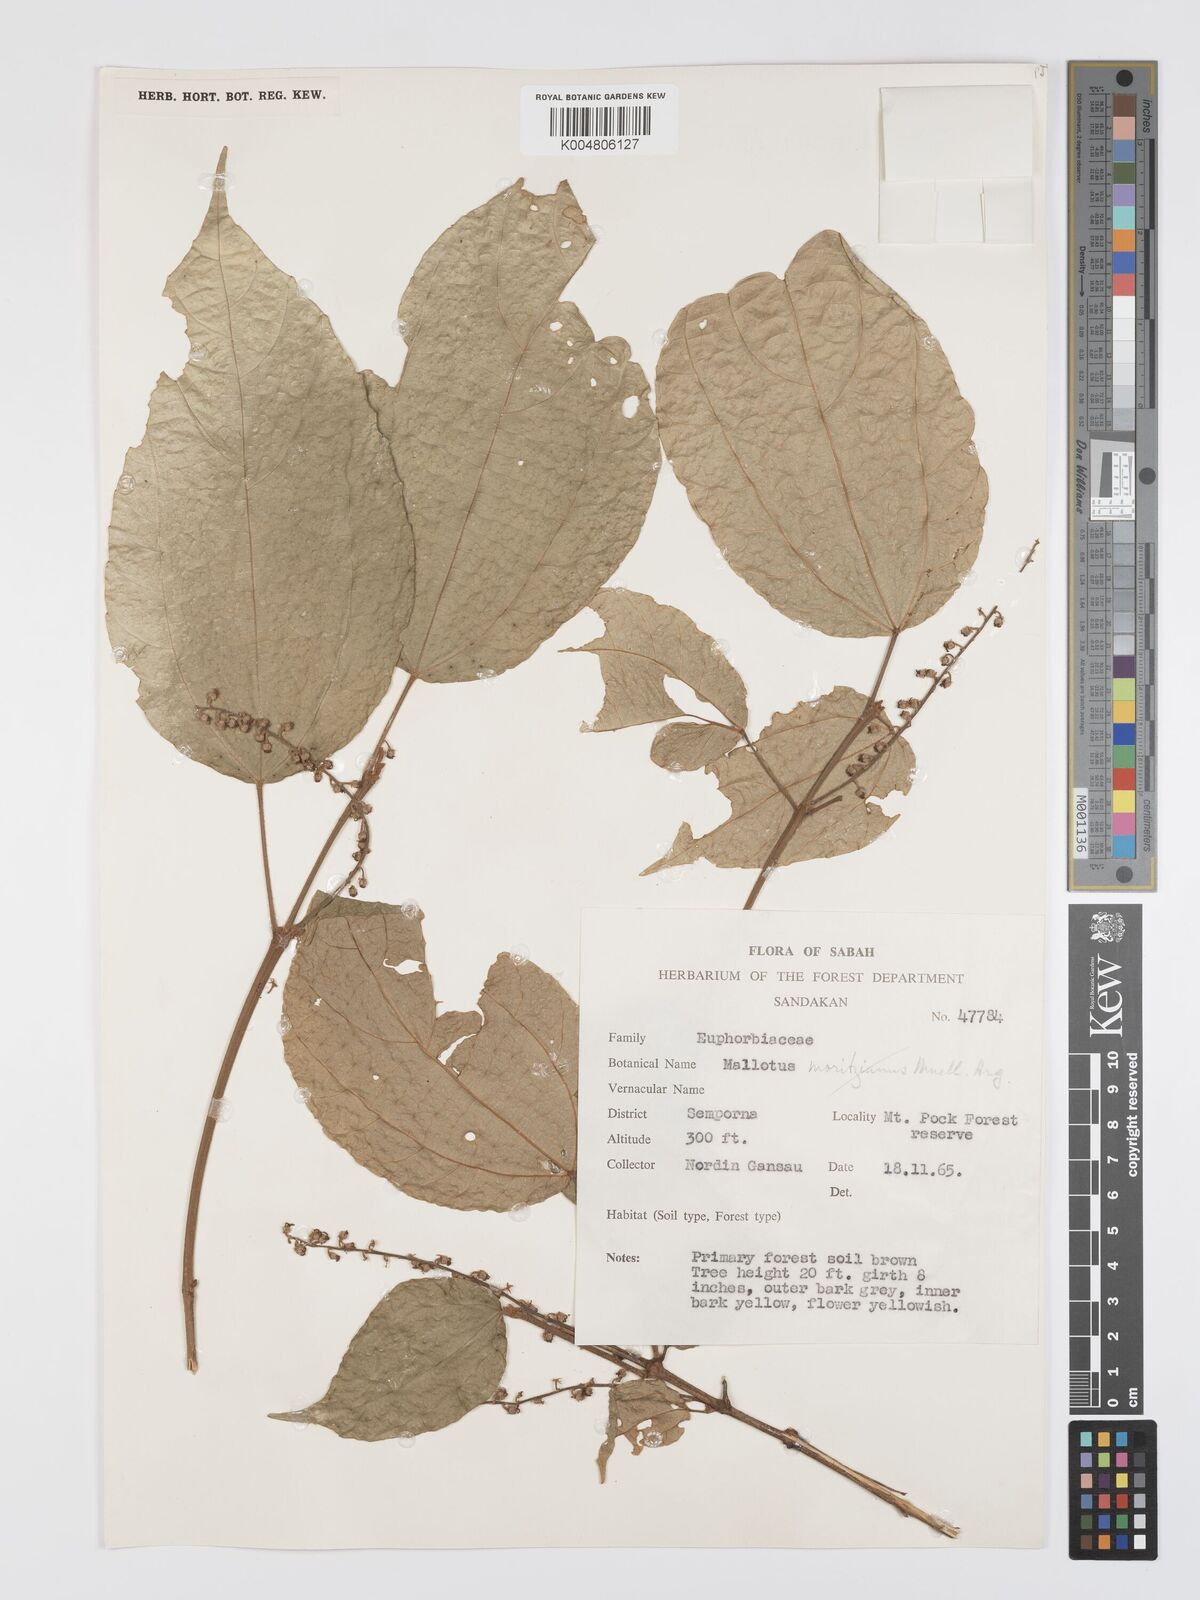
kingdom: Plantae
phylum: Tracheophyta
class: Magnoliopsida
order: Malpighiales
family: Euphorbiaceae
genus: Mallotus
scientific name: Mallotus korthalsii
